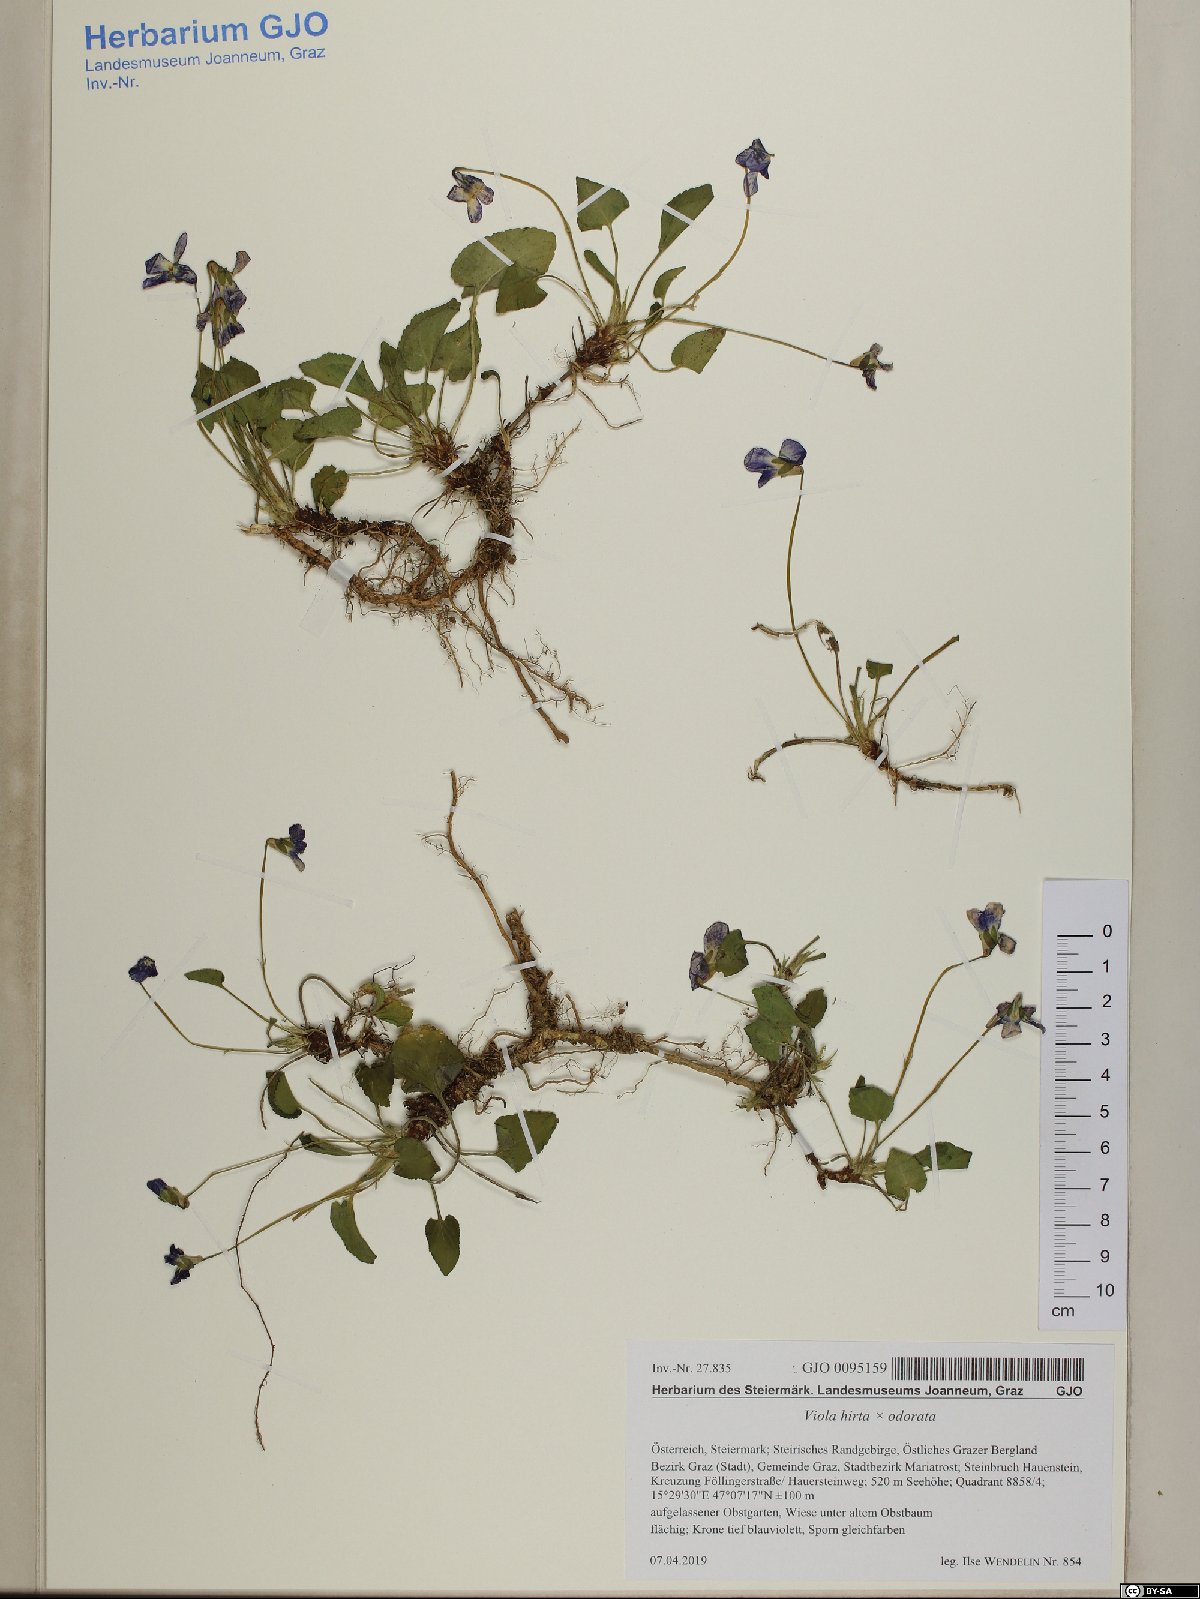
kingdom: Plantae
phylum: Tracheophyta
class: Magnoliopsida
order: Malpighiales
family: Violaceae
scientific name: Violaceae
